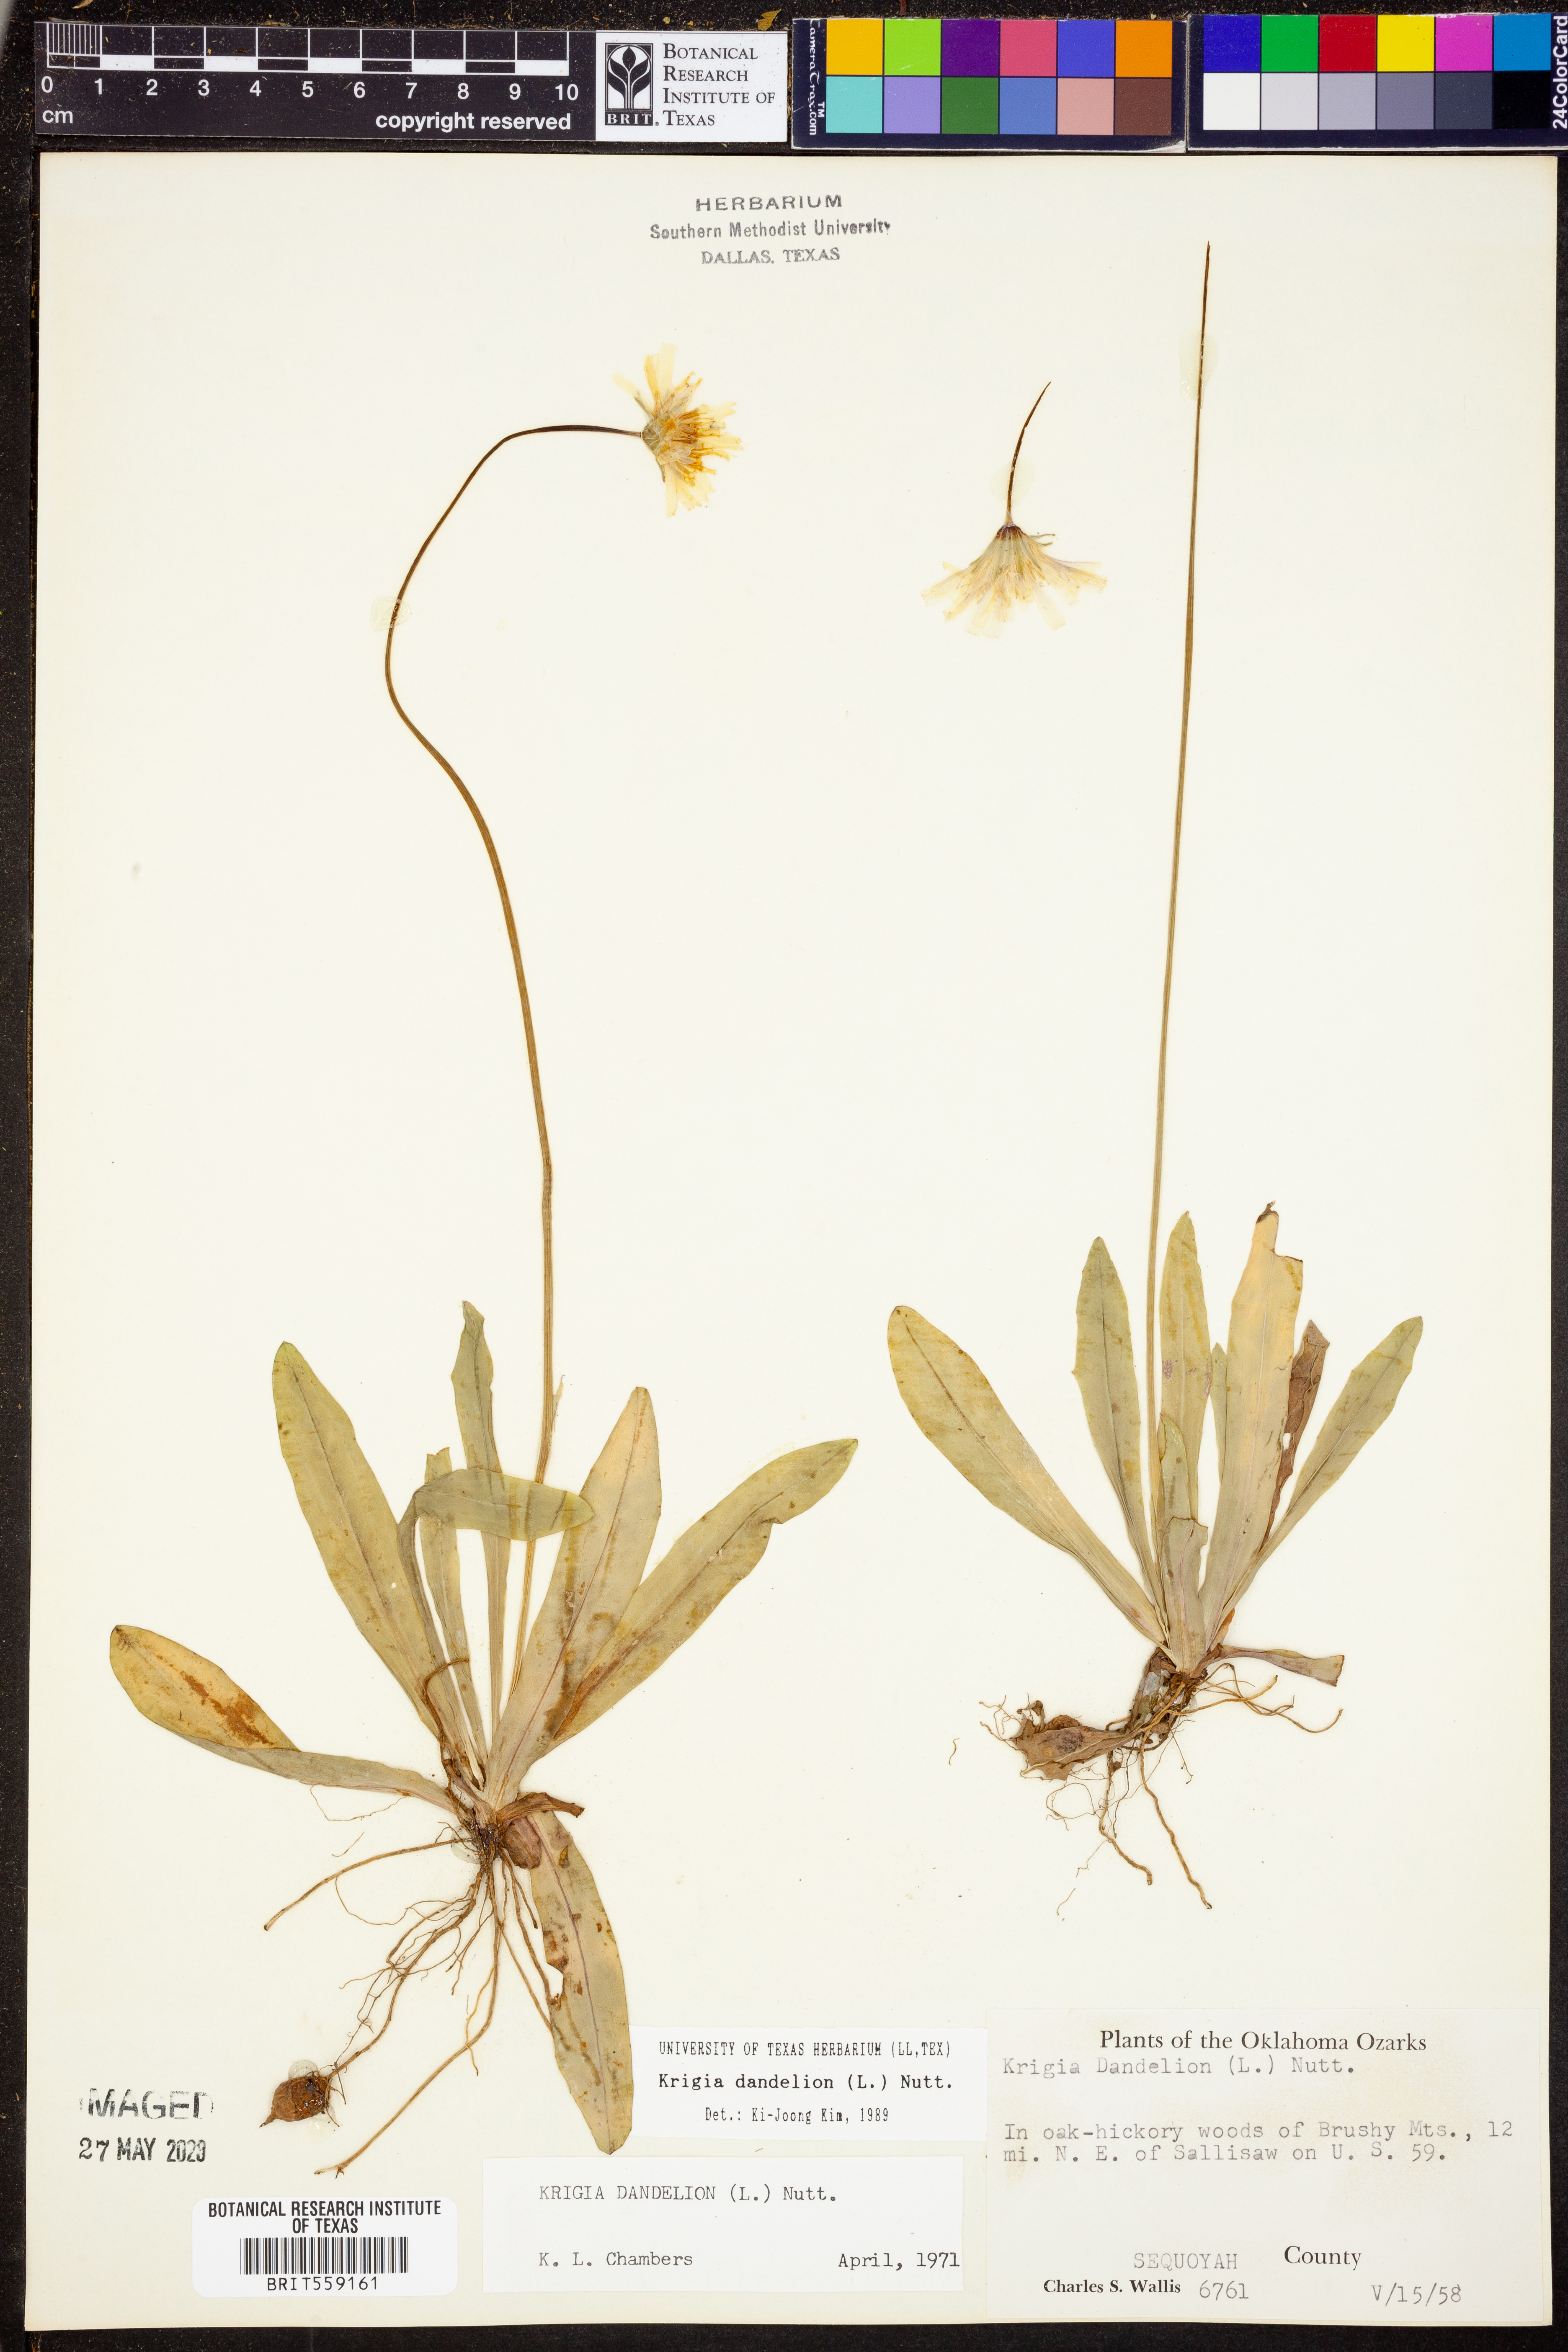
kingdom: Plantae
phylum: Tracheophyta
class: Magnoliopsida
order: Asterales
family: Asteraceae
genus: Krigia
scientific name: Krigia dandelion
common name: Colonial dwarf-dandelion
